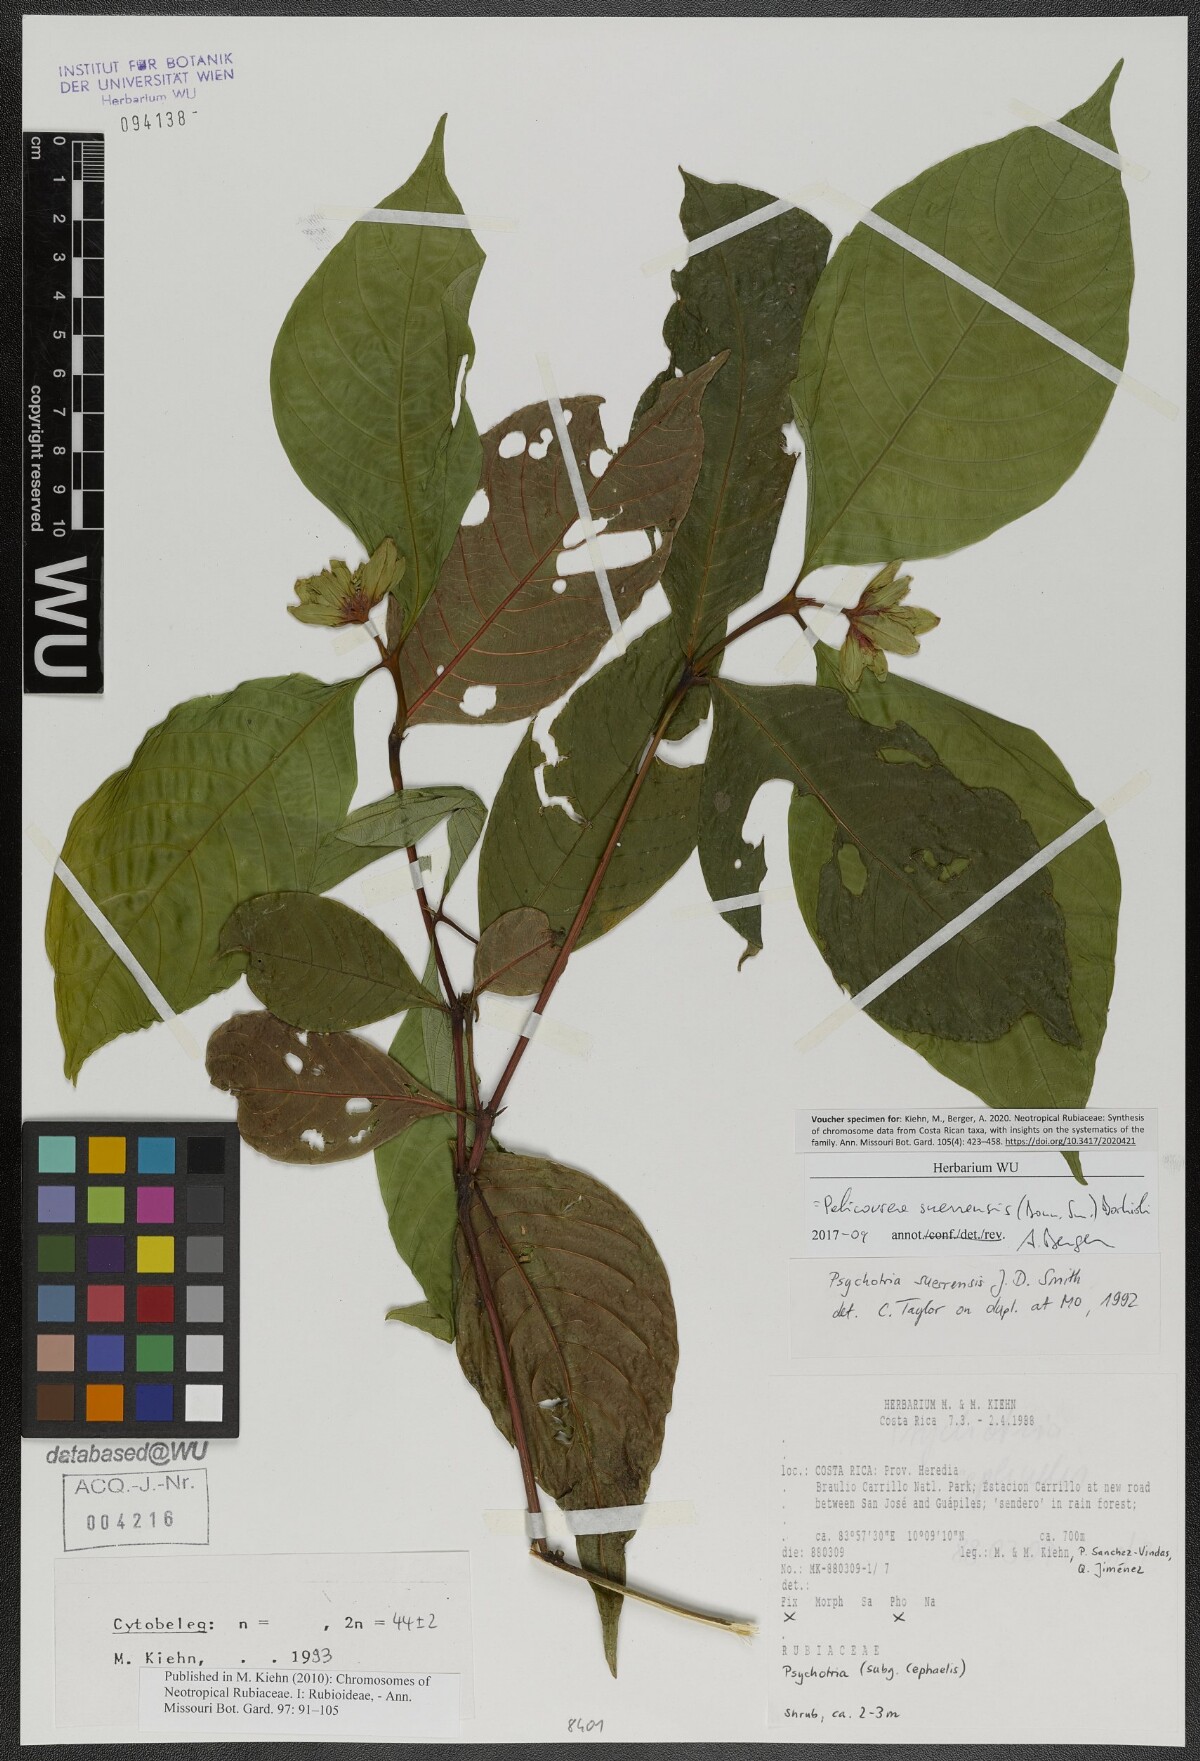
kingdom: Plantae
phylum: Tracheophyta
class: Magnoliopsida
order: Gentianales
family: Rubiaceae
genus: Palicourea
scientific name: Palicourea suerrensis
